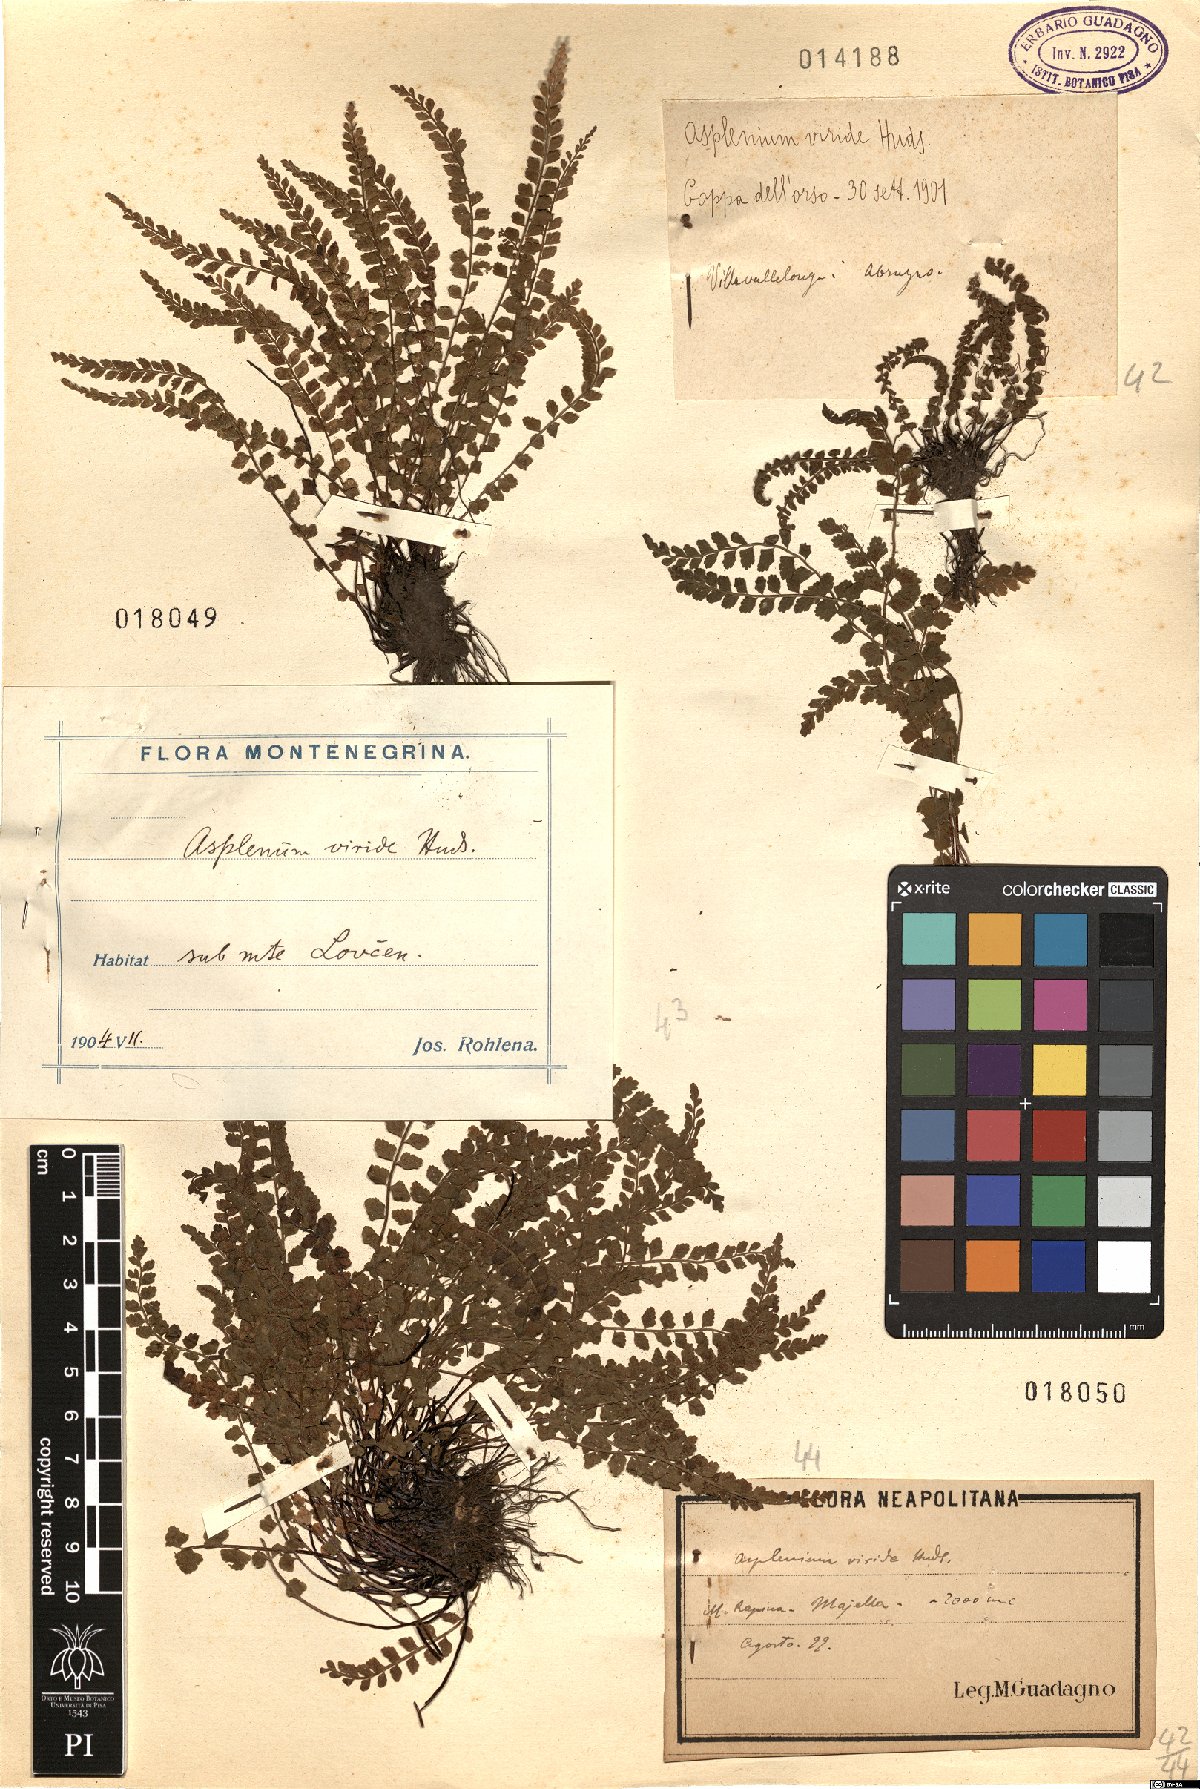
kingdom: Plantae
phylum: Tracheophyta
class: Polypodiopsida
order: Polypodiales
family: Aspleniaceae
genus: Asplenium
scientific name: Asplenium viride
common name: Green spleenwort
